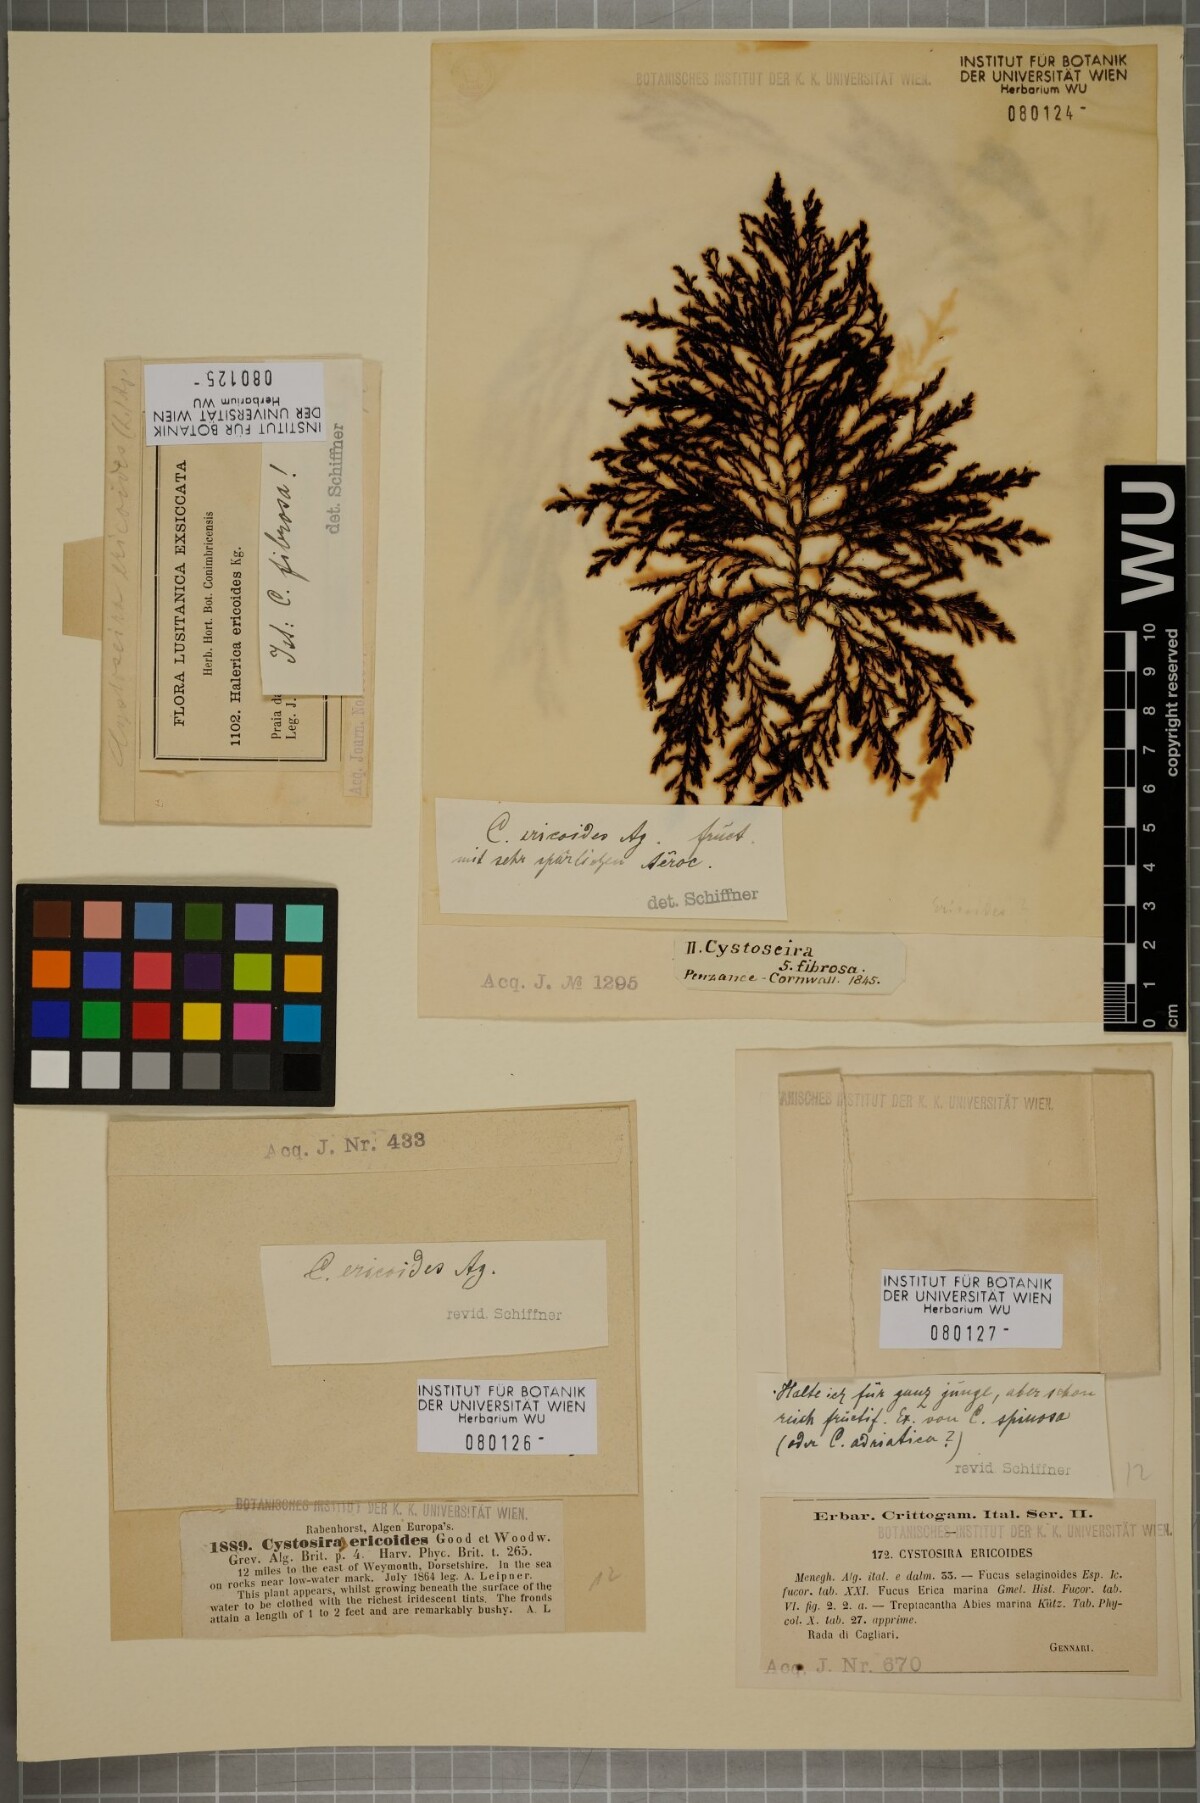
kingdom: Chromista
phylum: Ochrophyta
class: Phaeophyceae
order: Fucales
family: Sargassaceae
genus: Cystoseira
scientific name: Cystoseira Ericaria selaginoides
